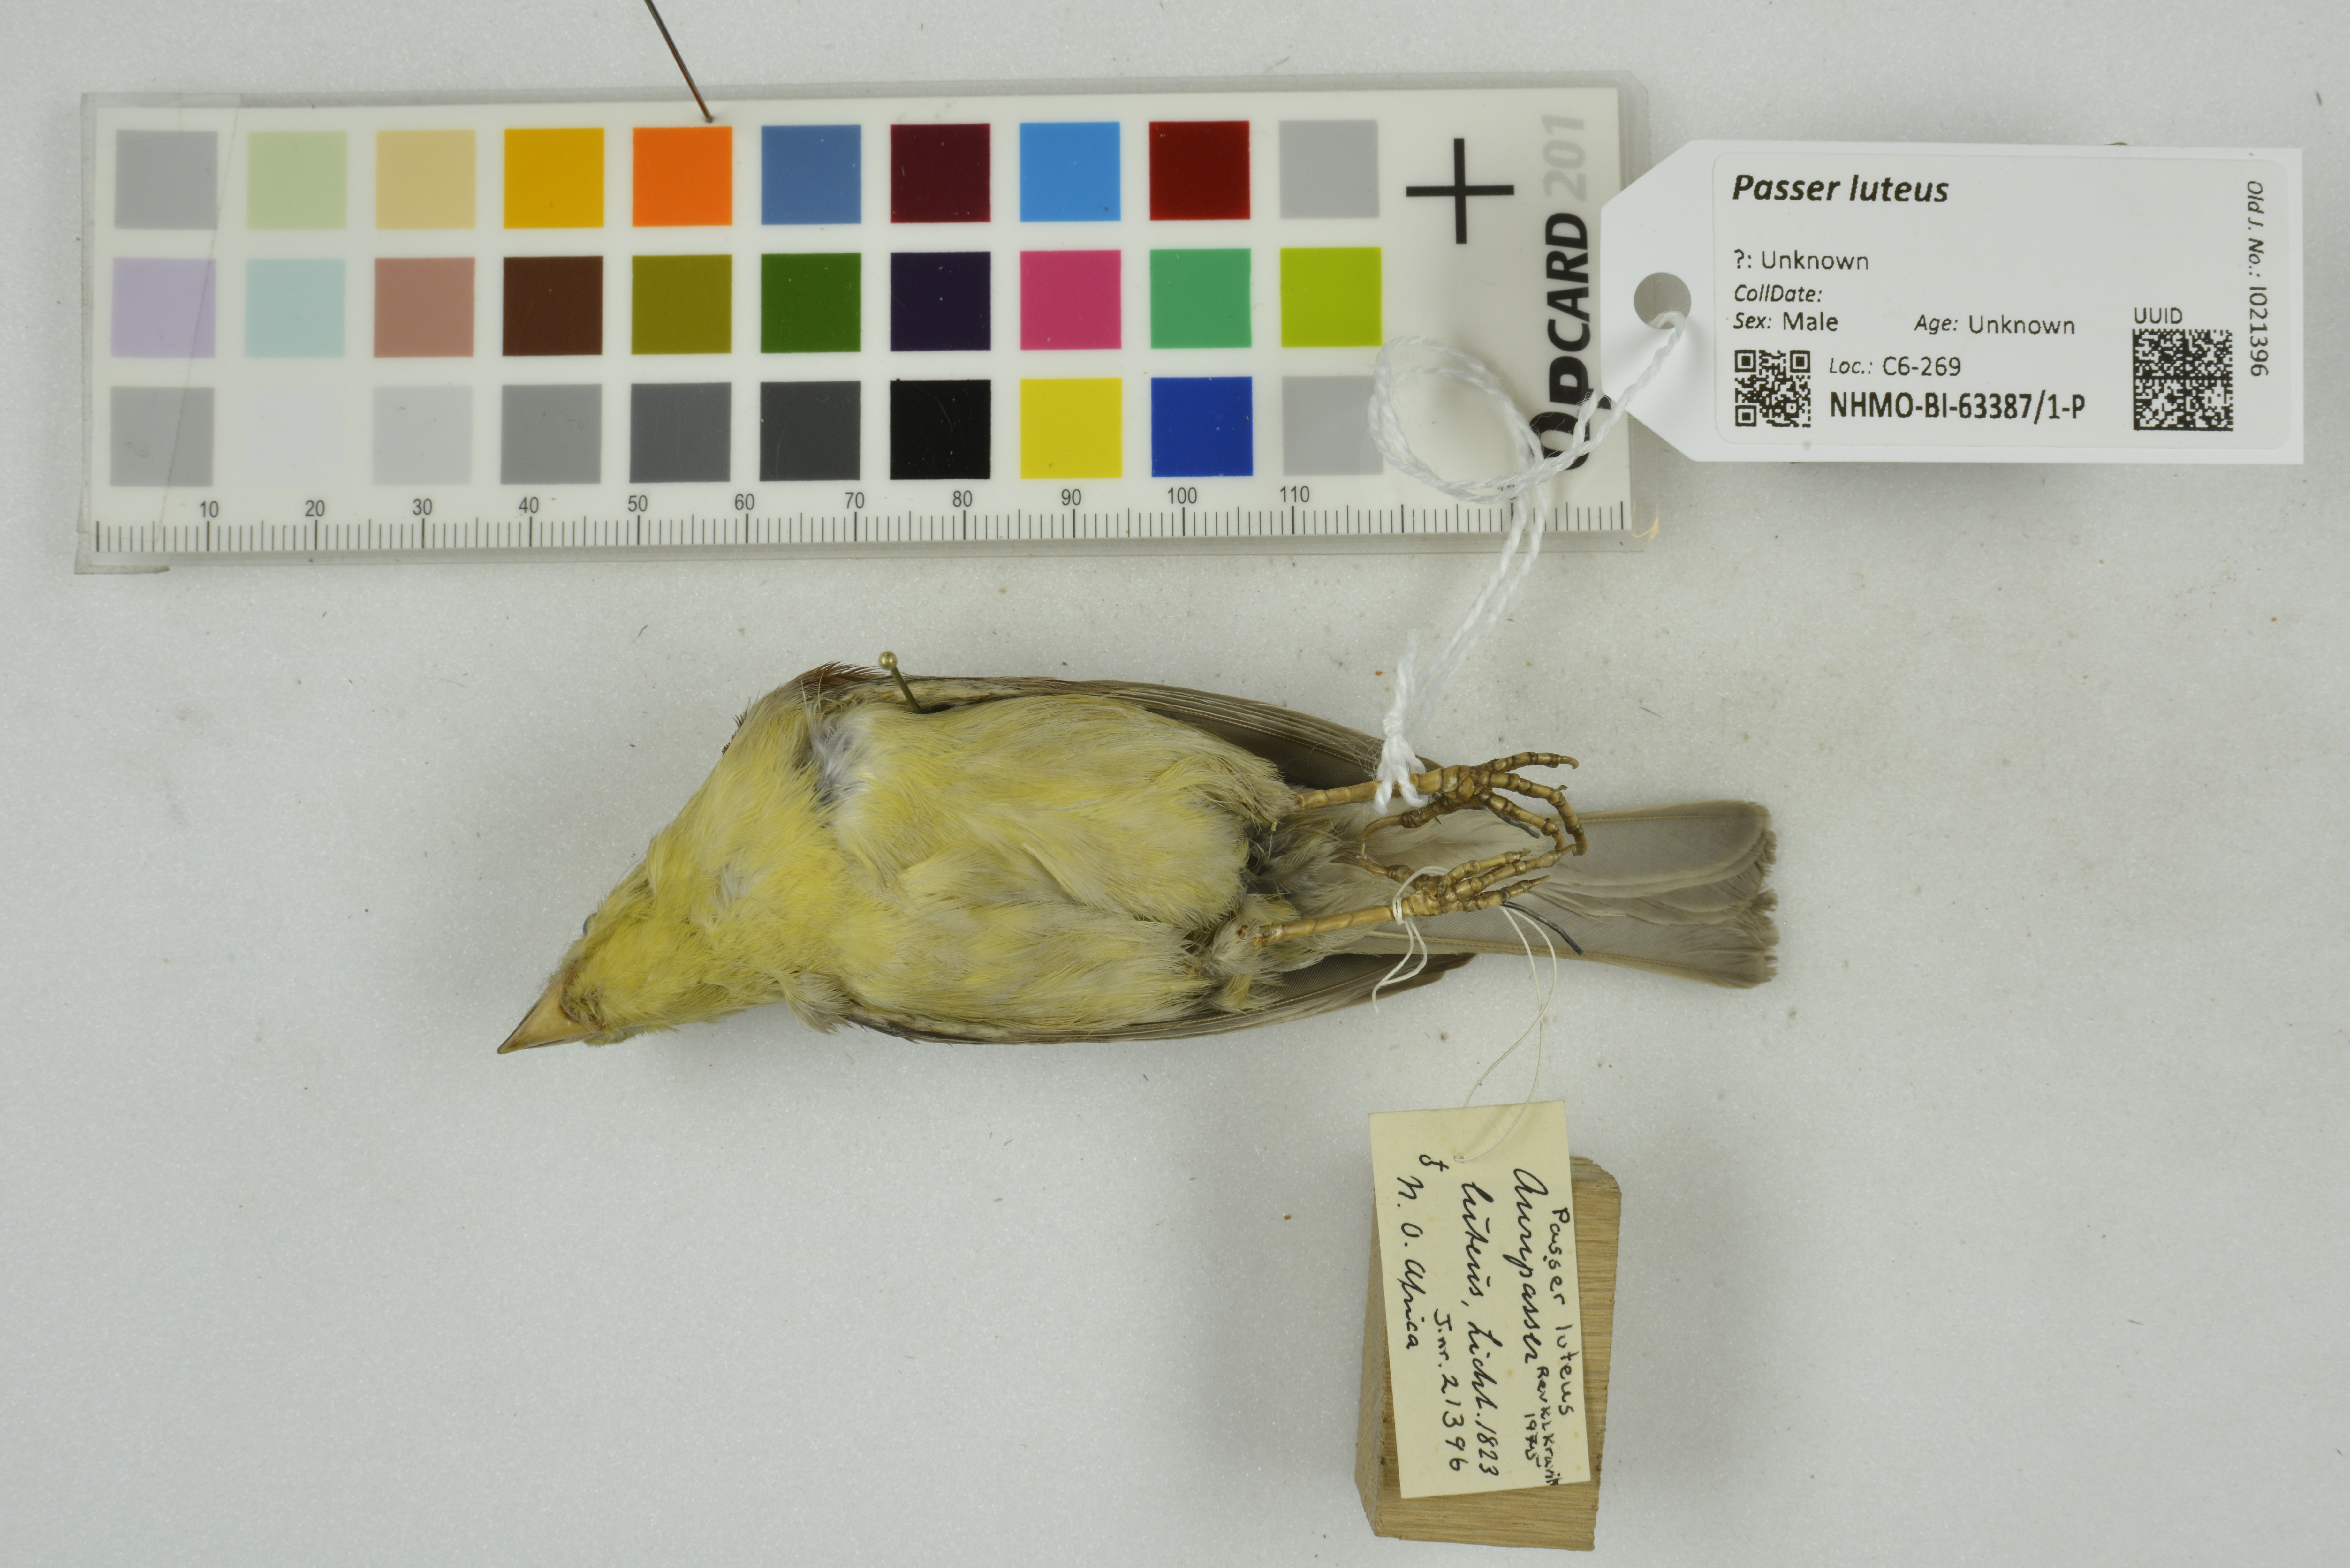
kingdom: Animalia
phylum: Chordata
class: Aves
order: Passeriformes
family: Passeridae
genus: Passer
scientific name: Passer luteus
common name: Sudan golden sparrow
